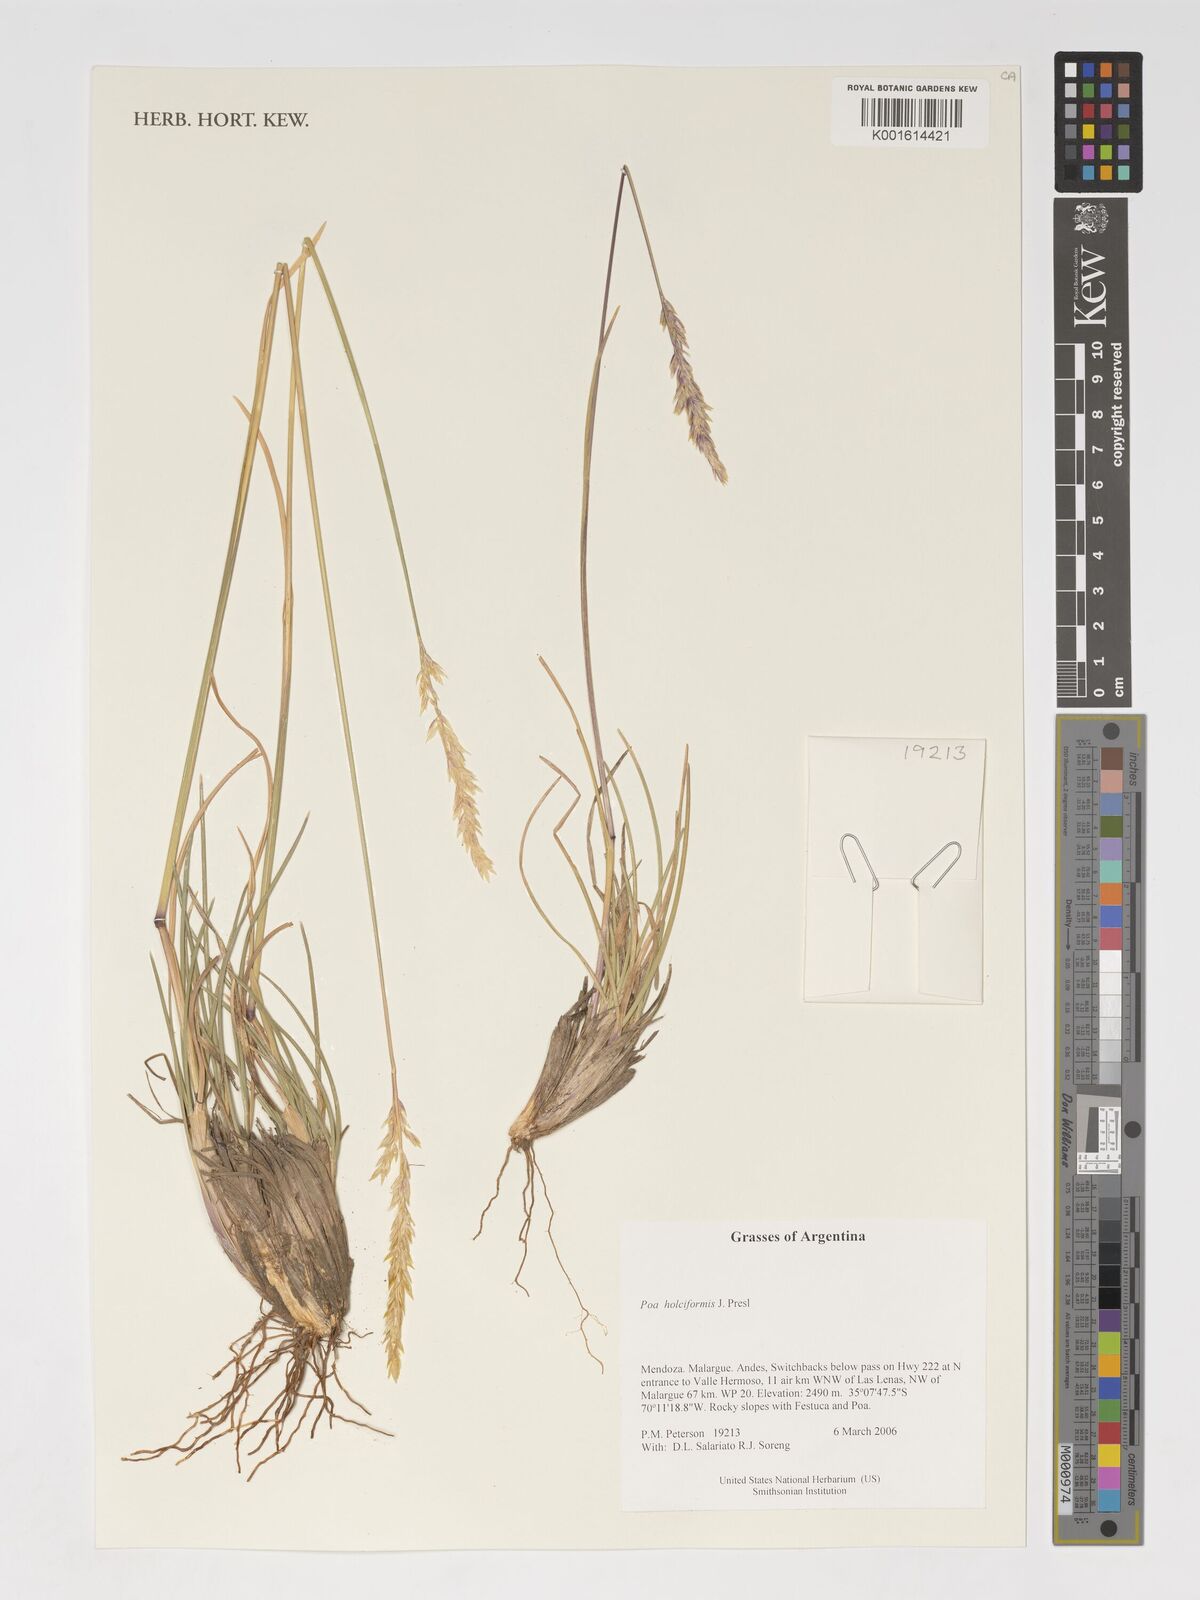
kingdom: Plantae
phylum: Tracheophyta
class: Liliopsida
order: Poales
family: Poaceae
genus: Poa
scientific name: Poa holciformis
